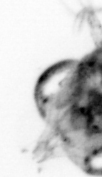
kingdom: Animalia
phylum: Arthropoda
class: Copepoda
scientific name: Copepoda
